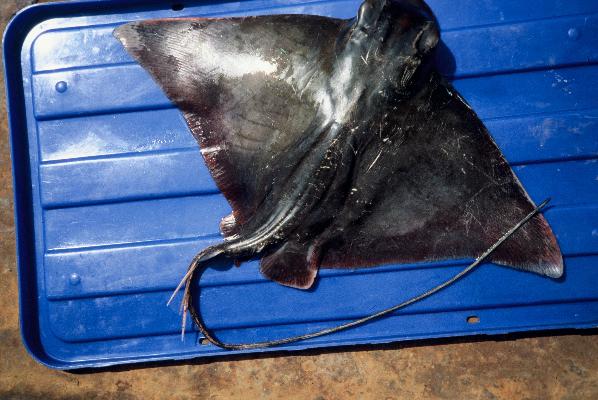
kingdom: Animalia
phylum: Chordata
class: Elasmobranchii
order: Myliobatiformes
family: Myliobatidae
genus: Myliobatis
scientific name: Myliobatis aquila
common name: Eagle ray
